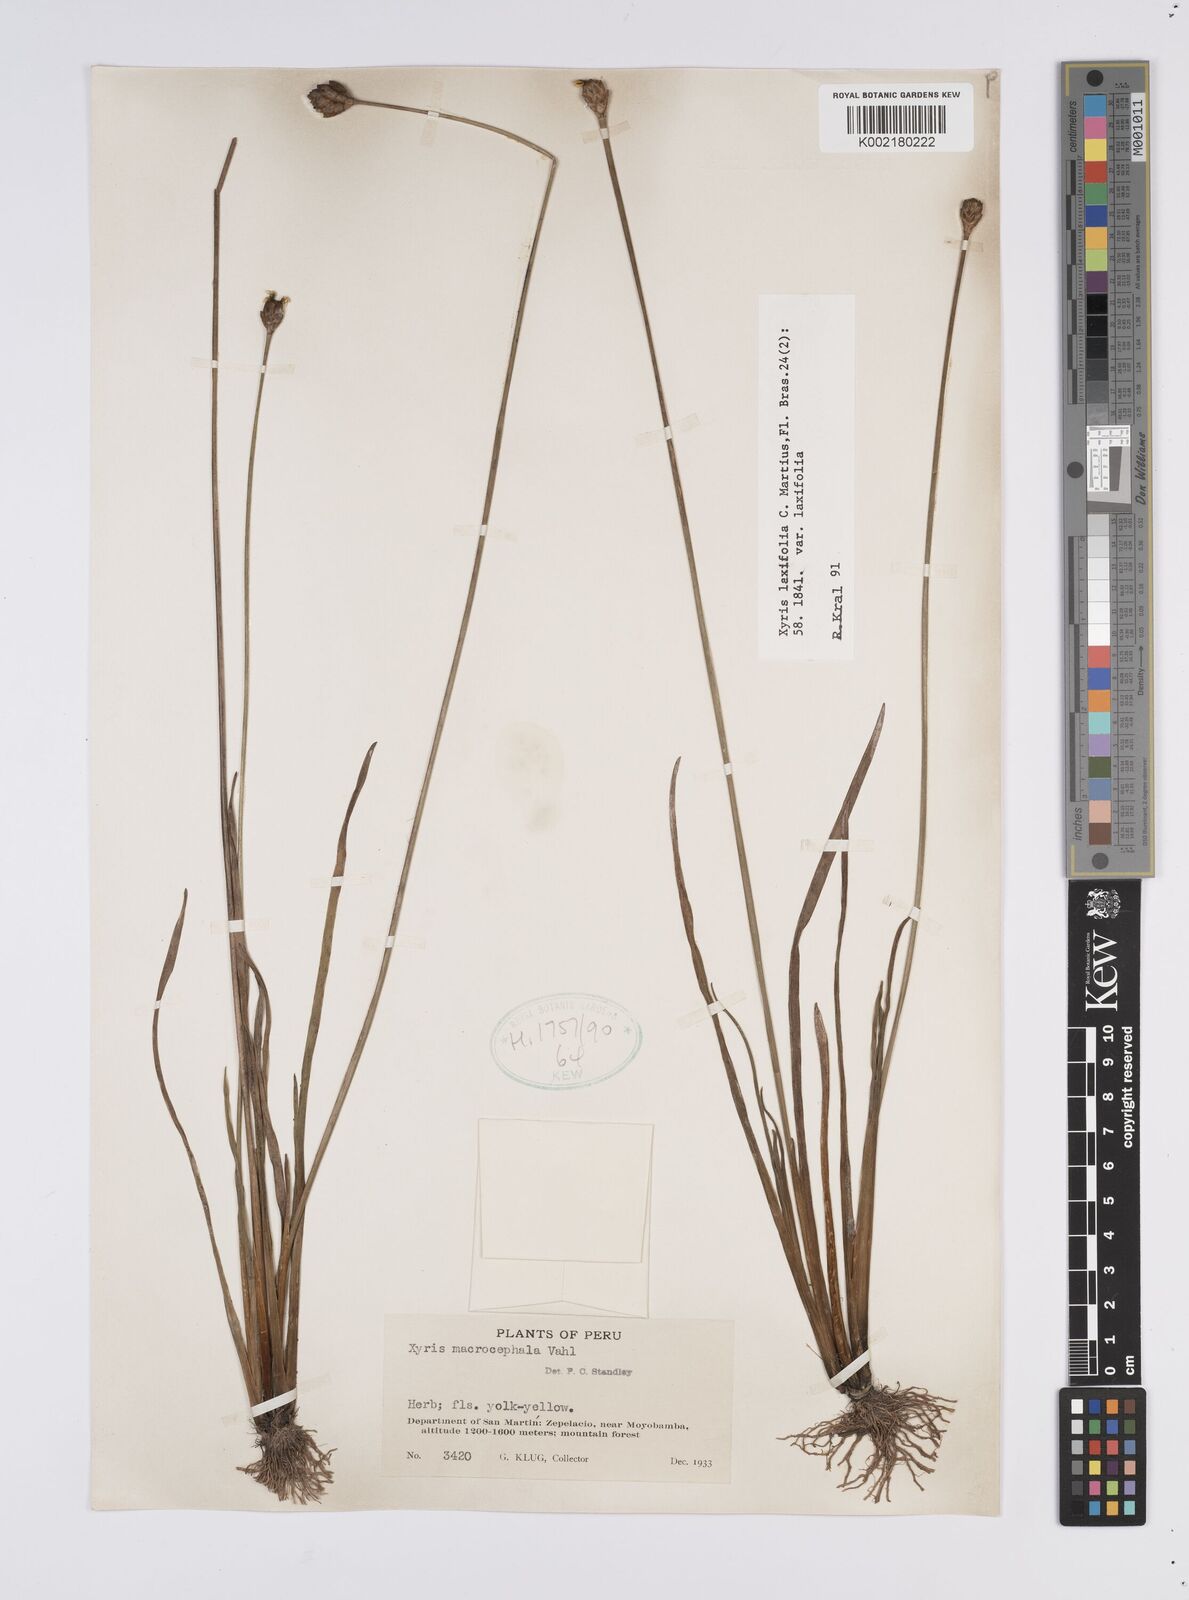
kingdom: Plantae
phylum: Tracheophyta
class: Liliopsida
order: Poales
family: Xyridaceae
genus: Xyris
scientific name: Xyris laxiflora
